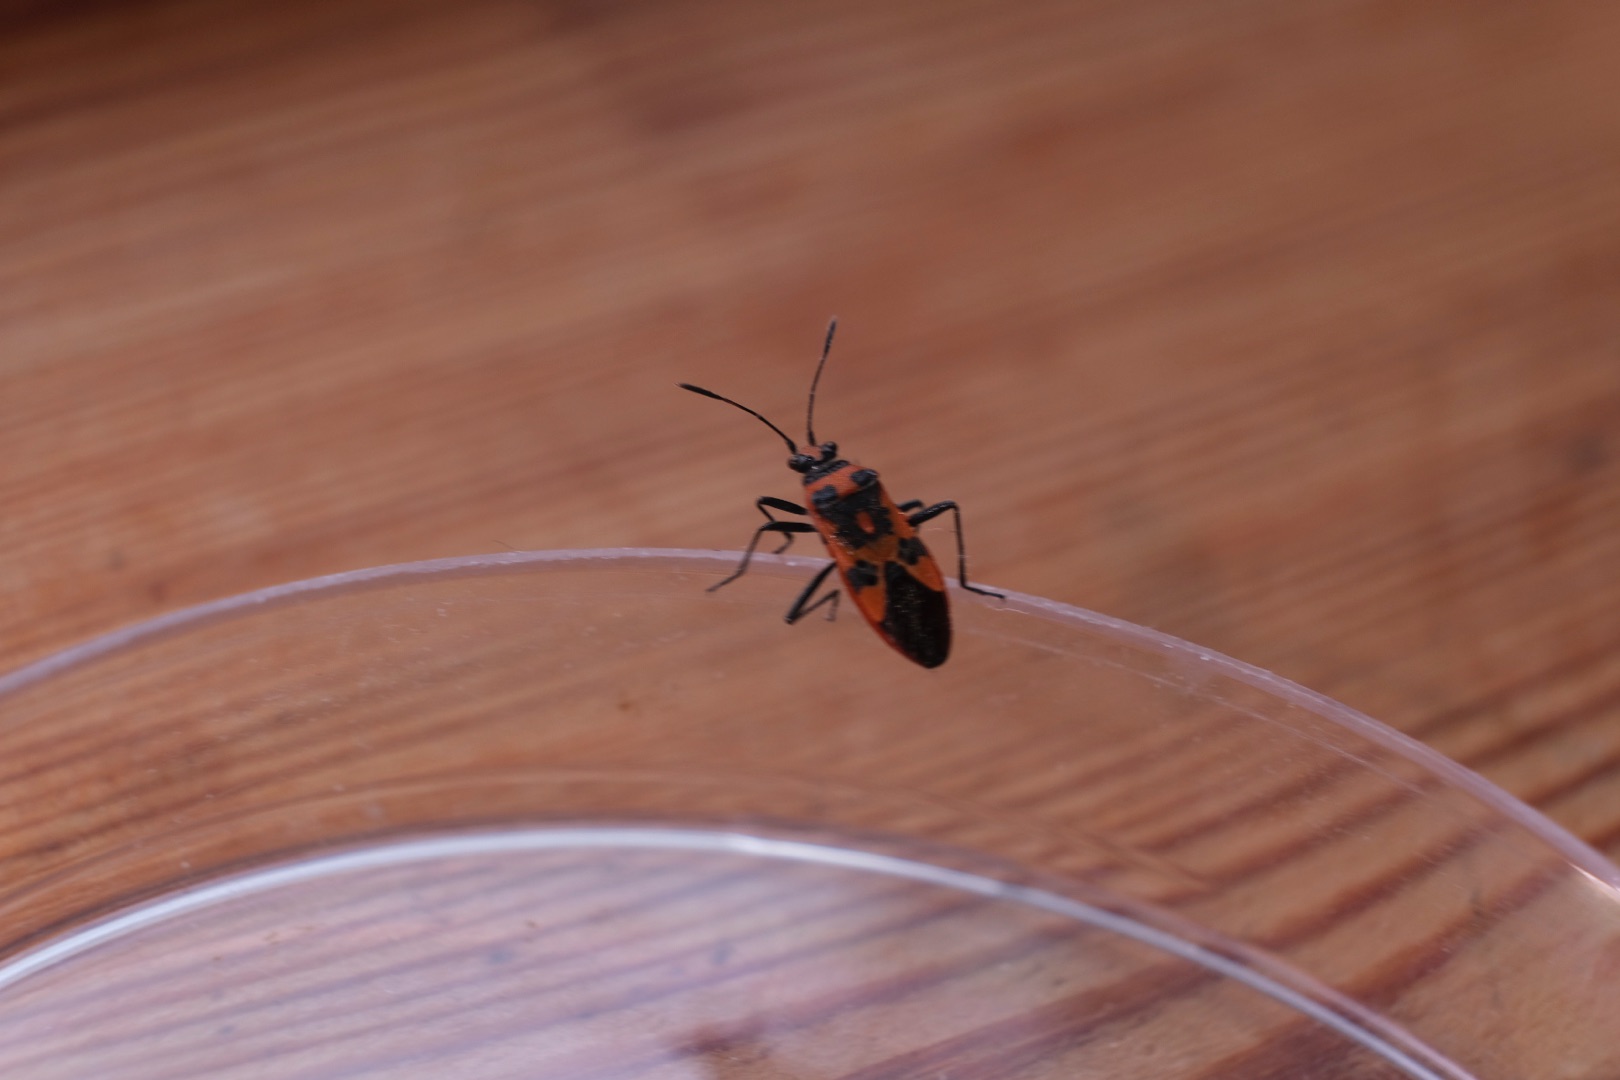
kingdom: Animalia
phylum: Arthropoda
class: Insecta
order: Hemiptera
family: Rhopalidae
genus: Corizus
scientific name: Corizus hyoscyami
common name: Rød kanttæge
